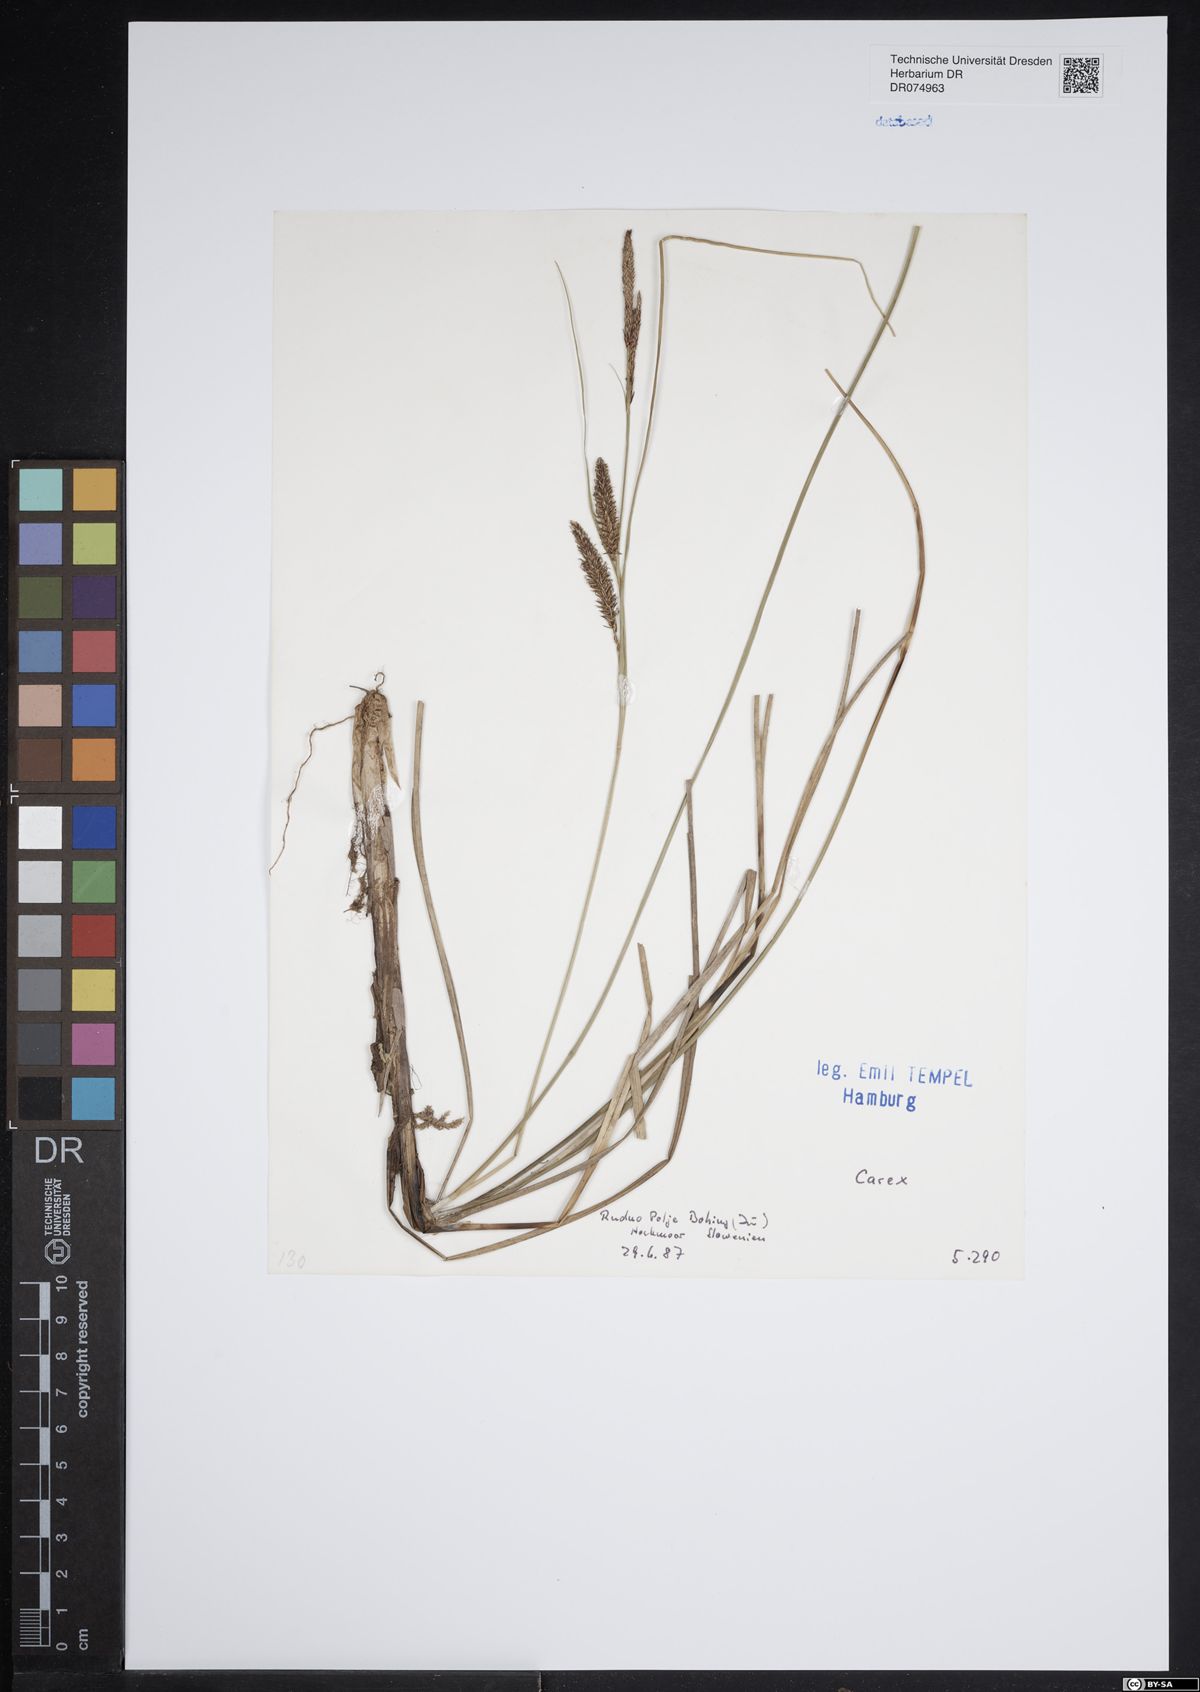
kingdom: Plantae
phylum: Tracheophyta
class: Liliopsida
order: Poales
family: Cyperaceae
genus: Carex
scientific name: Carex
